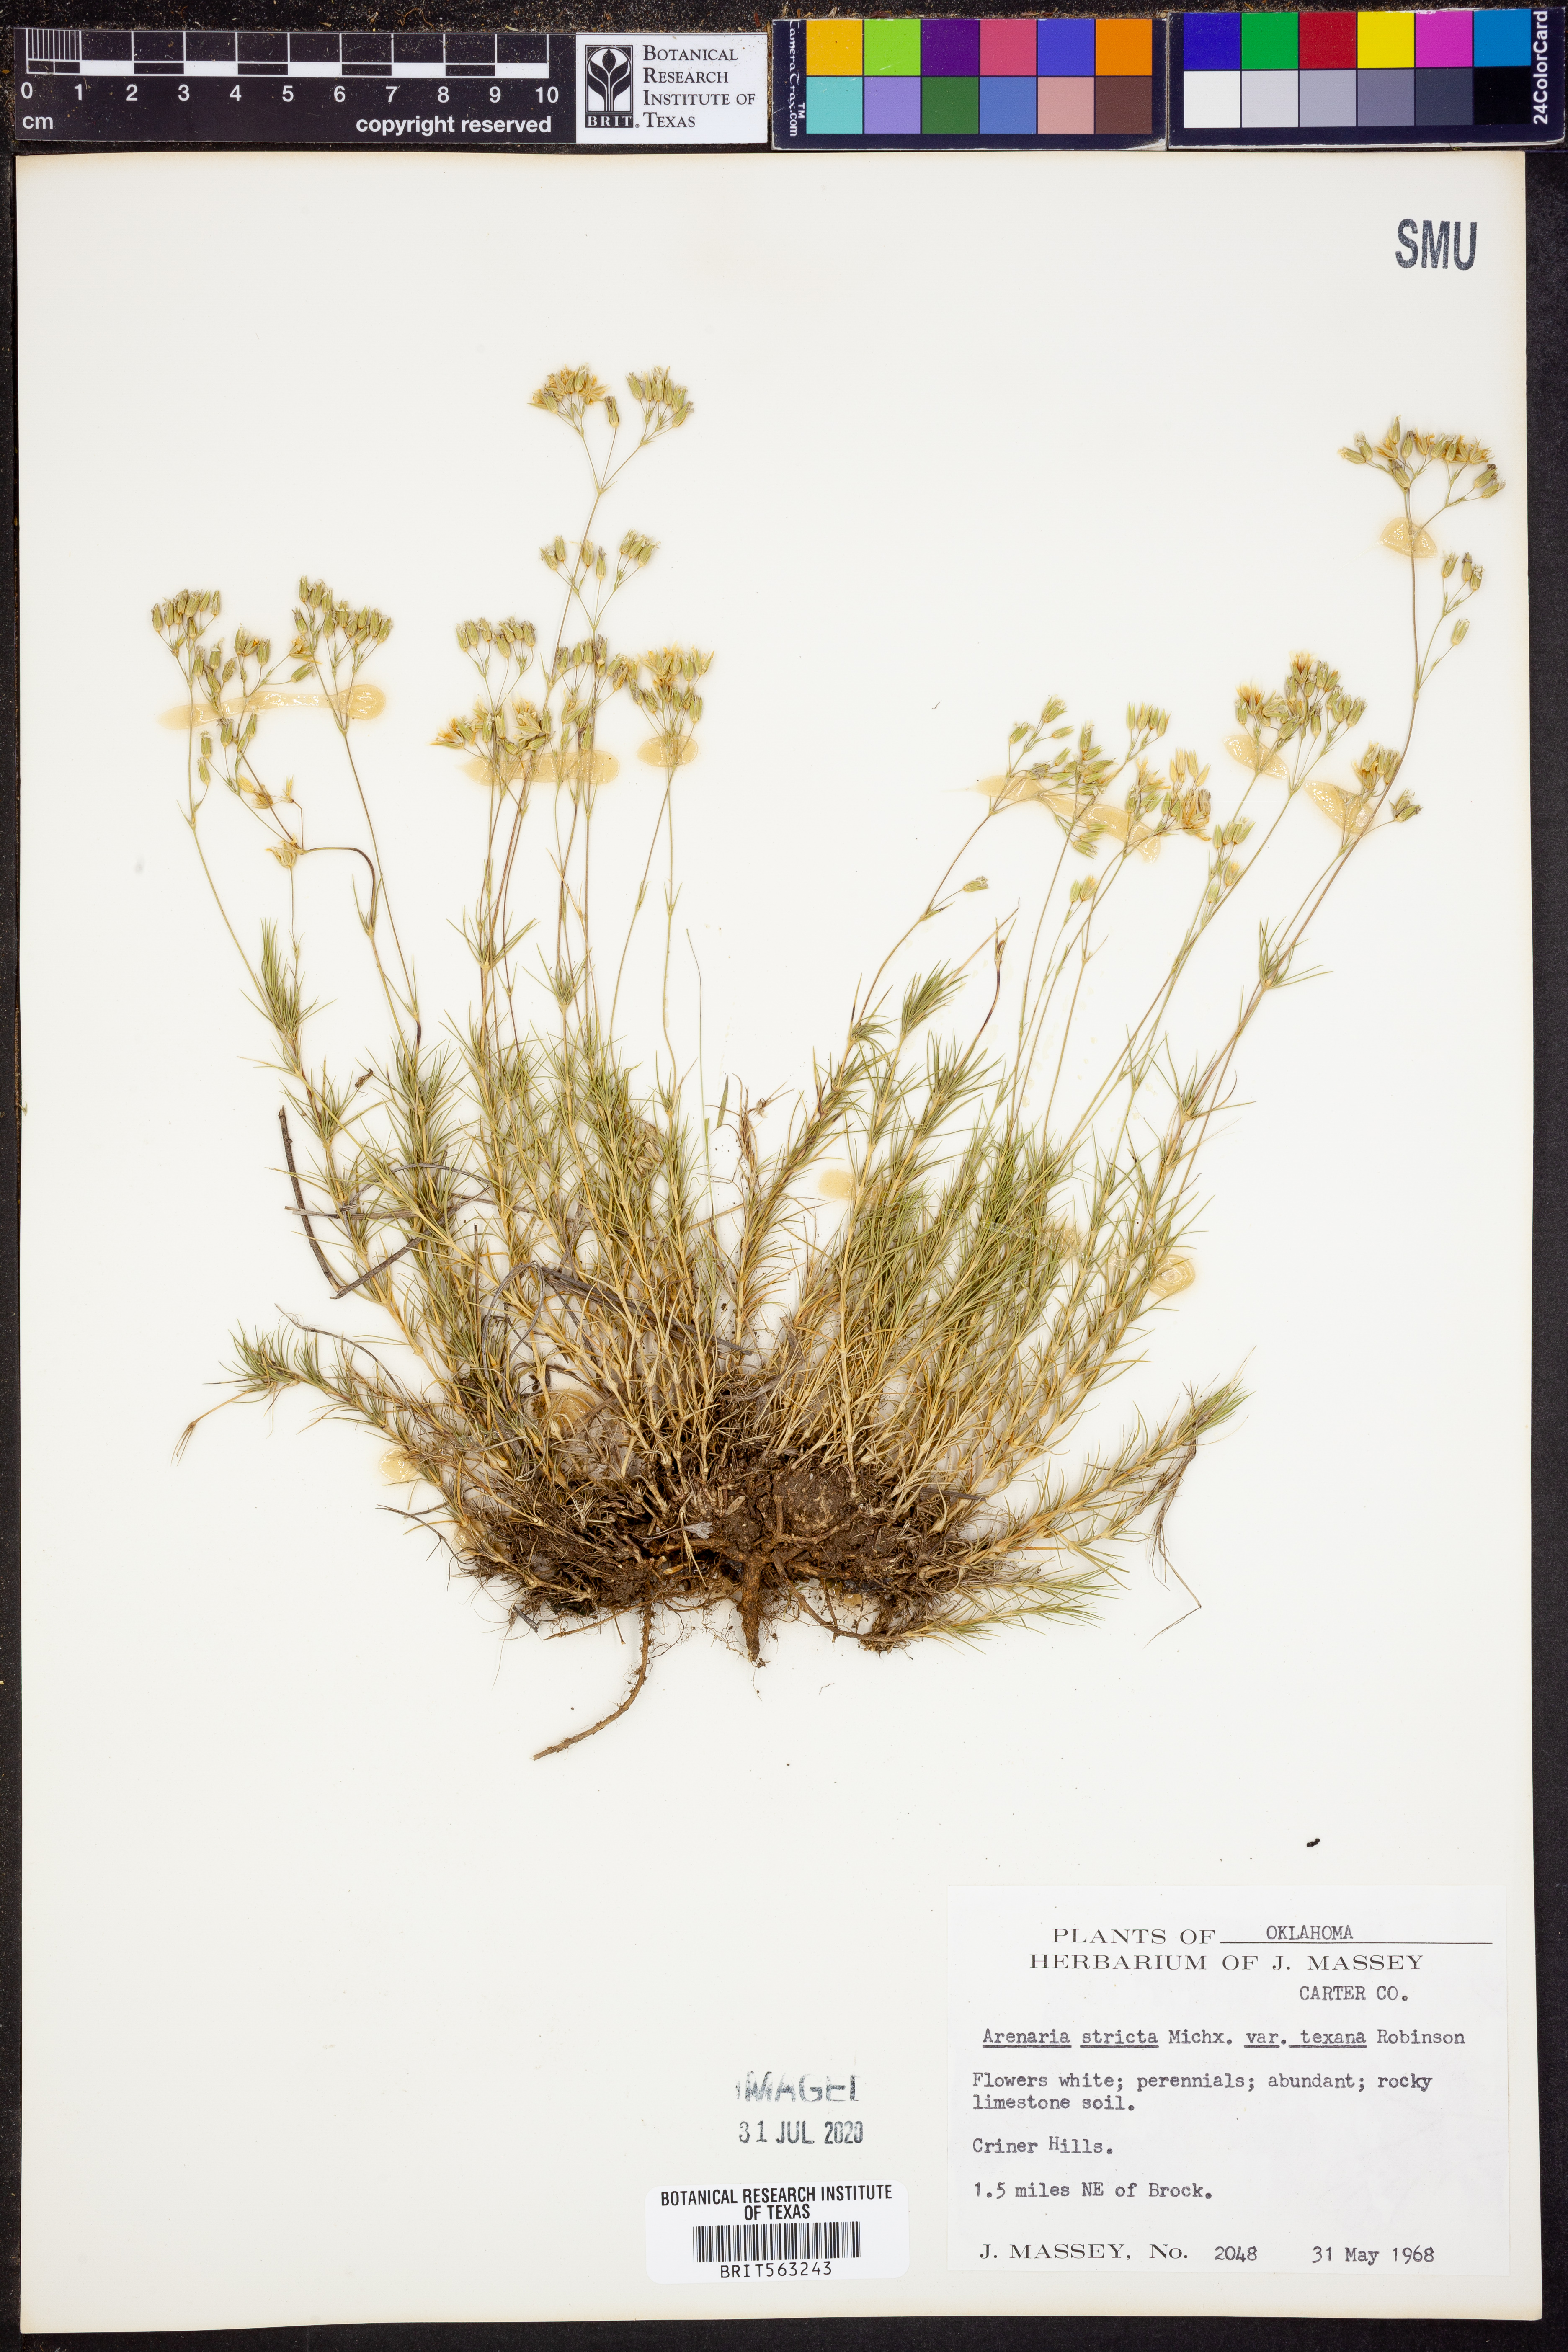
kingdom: Plantae
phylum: Tracheophyta
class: Magnoliopsida
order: Caryophyllales
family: Caryophyllaceae
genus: Sabulina
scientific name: Sabulina michauxii
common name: Michaux's stitchwort
